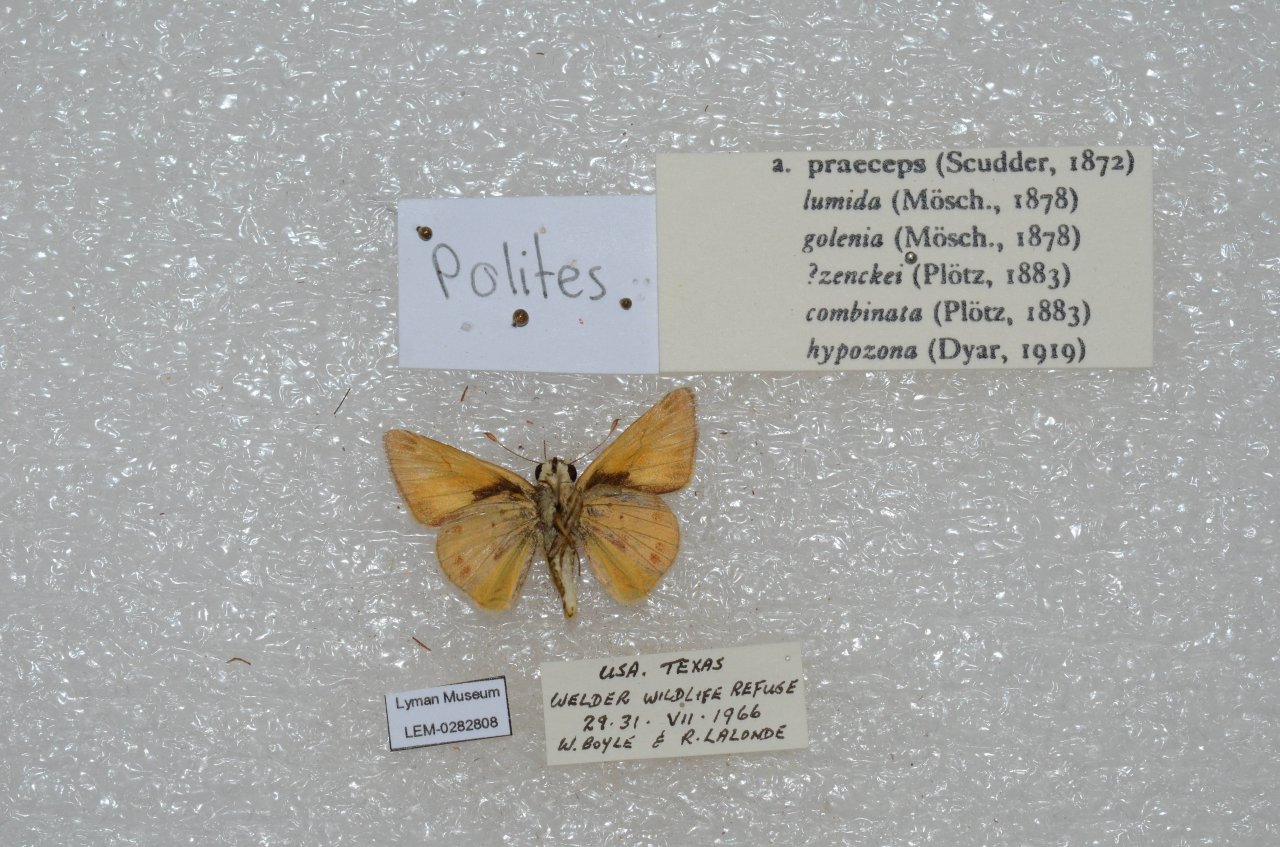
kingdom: Animalia
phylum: Arthropoda
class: Insecta
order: Lepidoptera
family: Hesperiidae
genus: Polites
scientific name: Polites vibex
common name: Whirlabout
